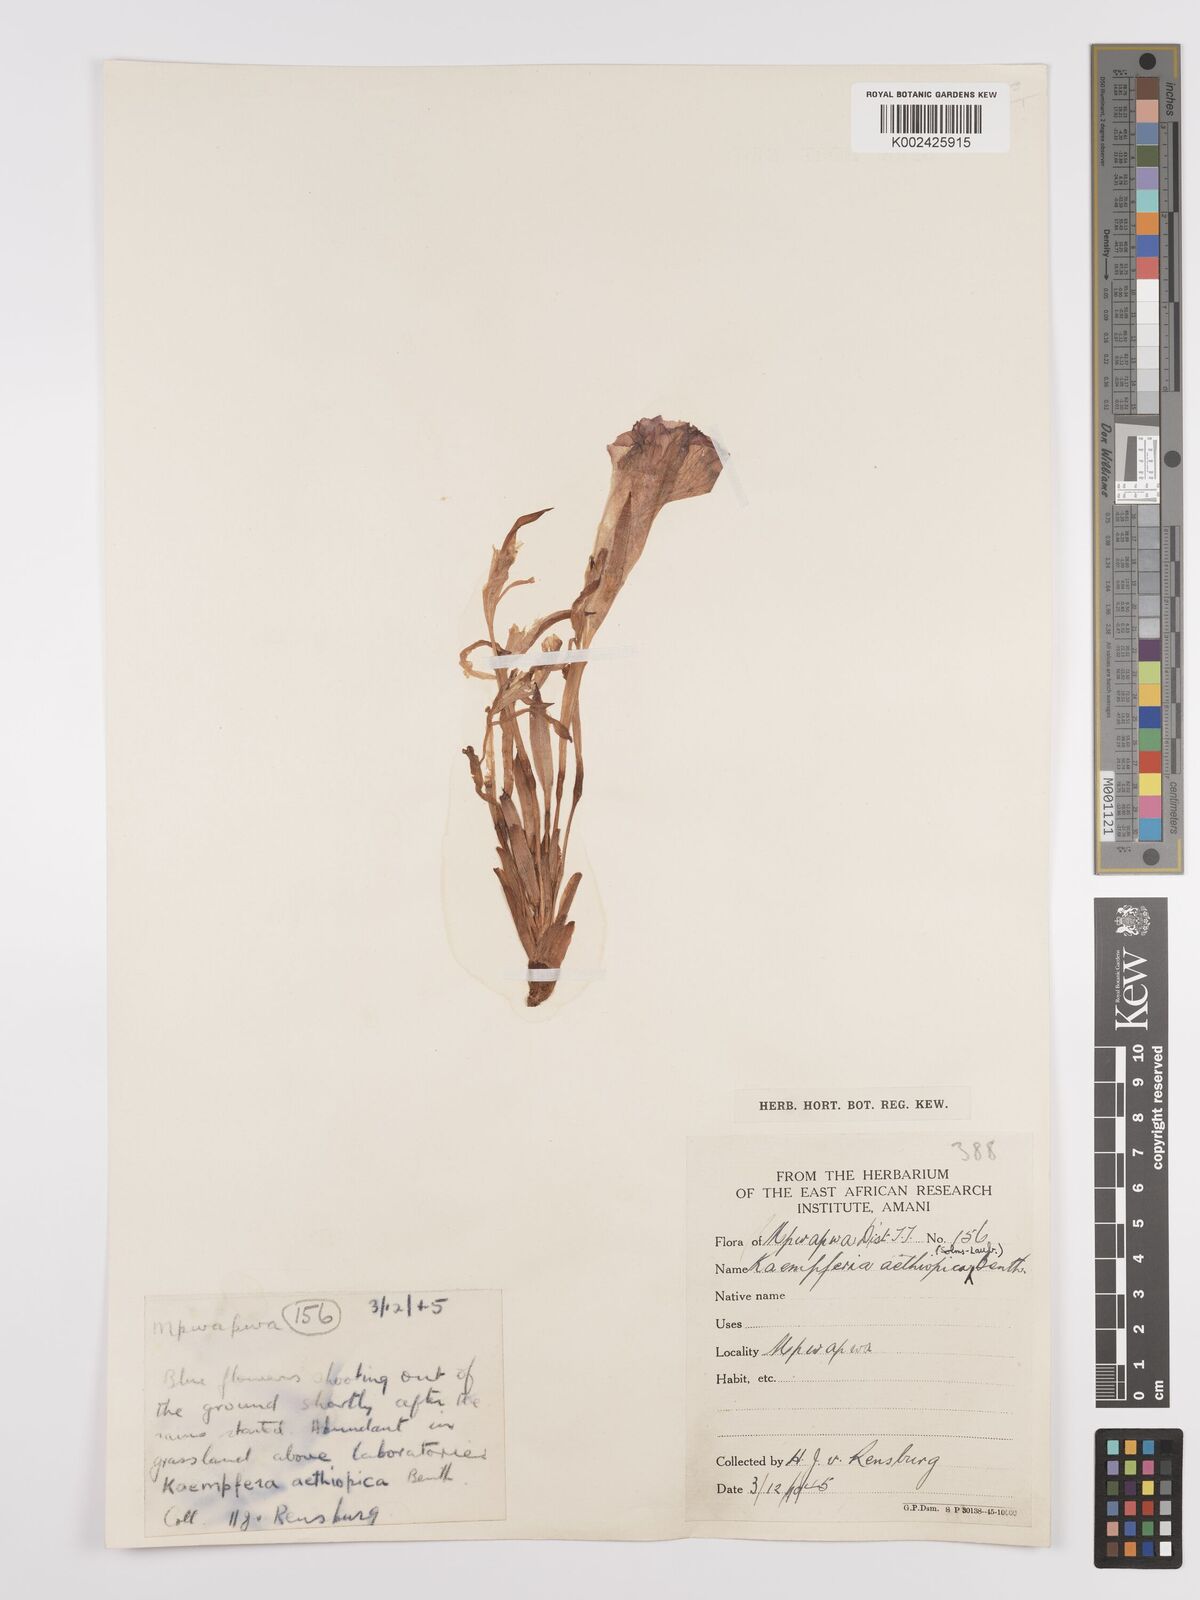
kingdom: Plantae
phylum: Tracheophyta
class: Liliopsida
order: Zingiberales
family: Zingiberaceae
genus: Siphonochilus
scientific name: Siphonochilus aethiopicus
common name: African-ginger
